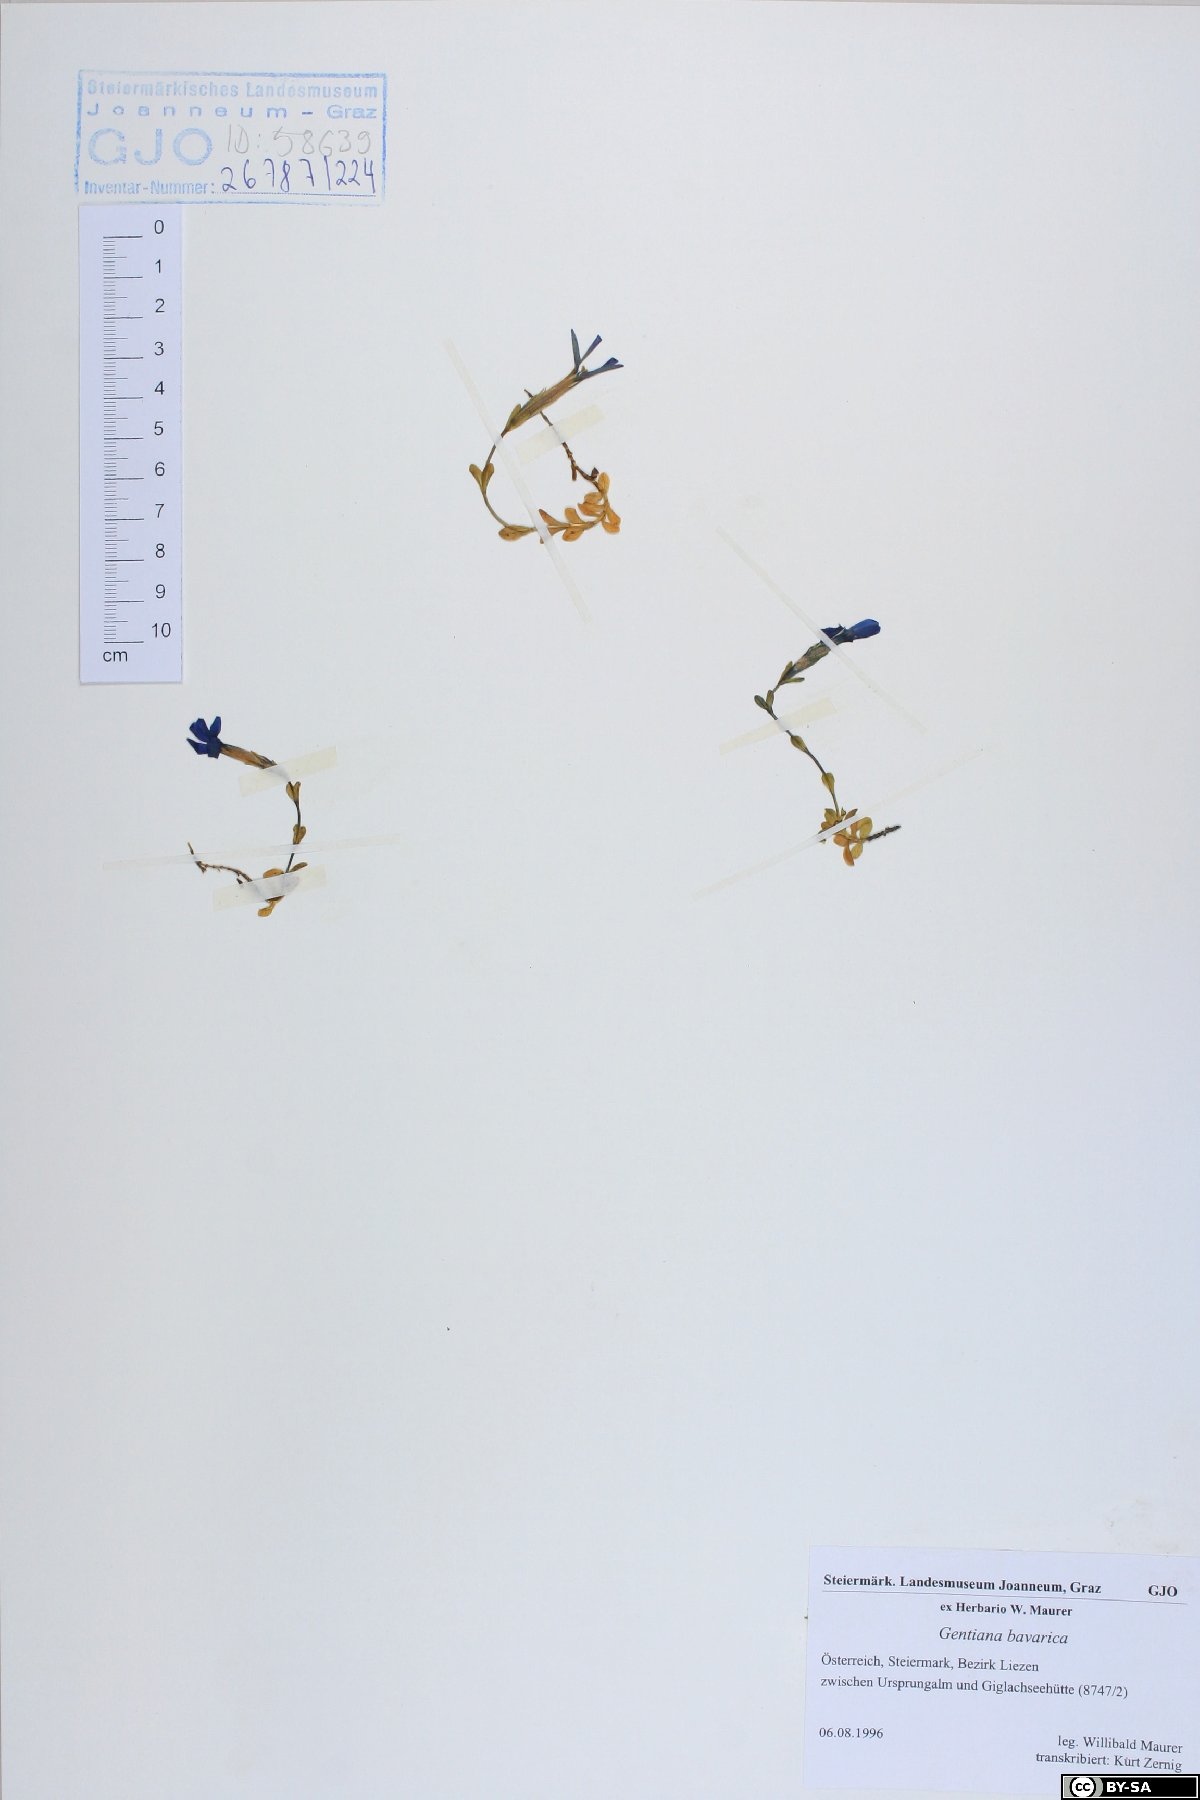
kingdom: Plantae
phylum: Tracheophyta
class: Magnoliopsida
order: Gentianales
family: Gentianaceae
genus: Gentiana
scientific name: Gentiana bavarica
